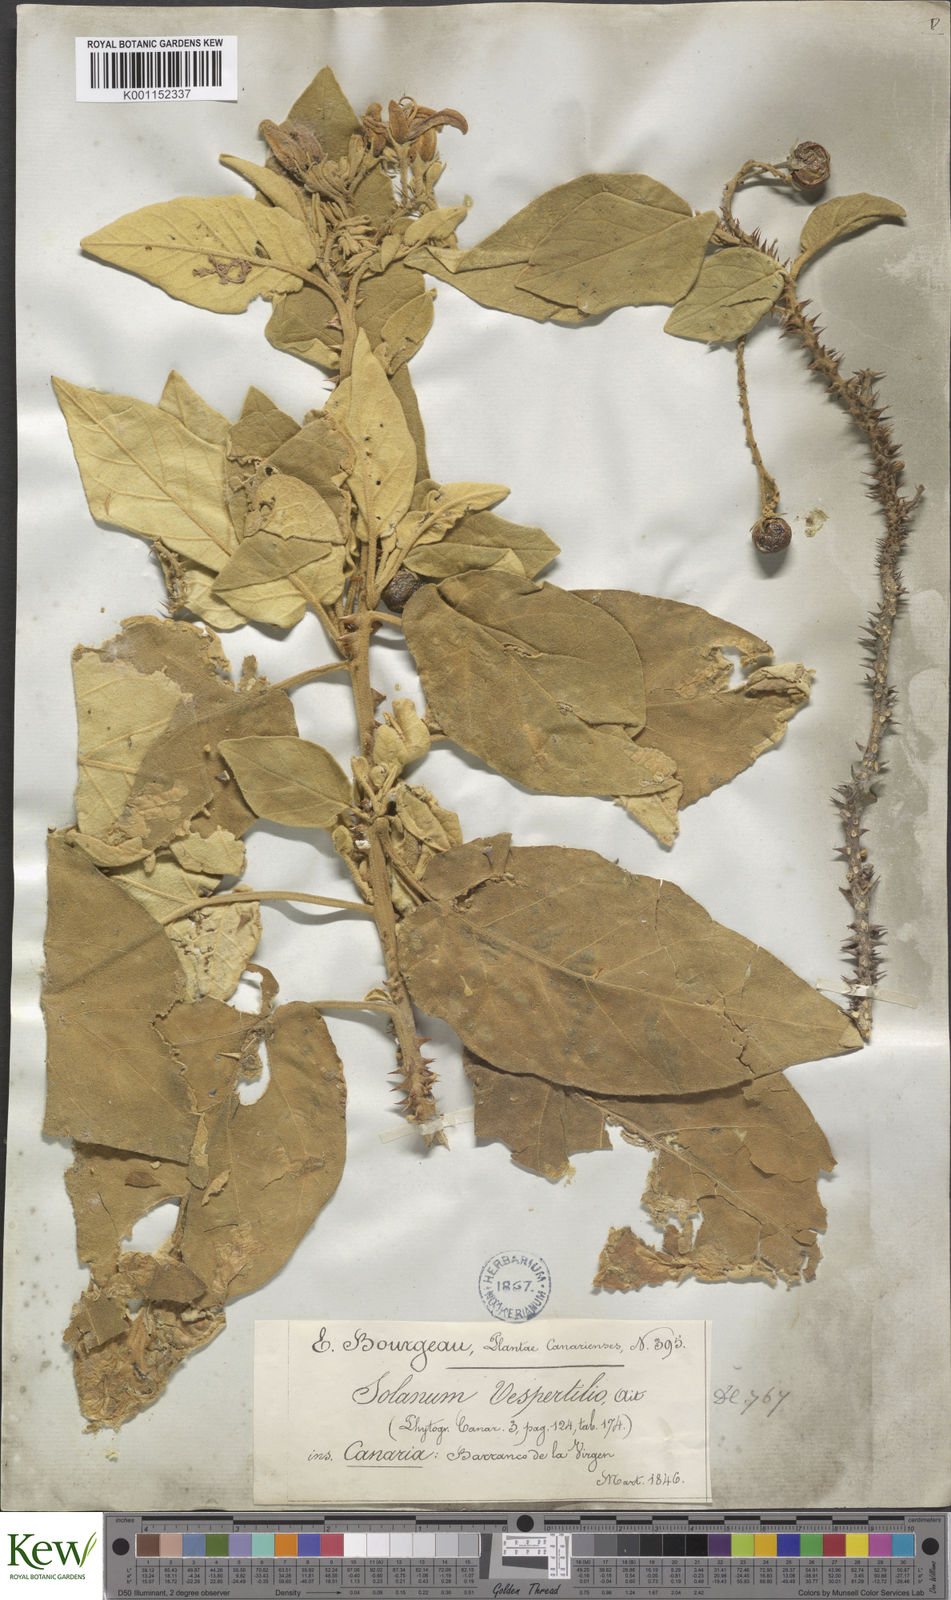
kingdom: Plantae
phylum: Tracheophyta
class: Magnoliopsida
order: Solanales
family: Solanaceae
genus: Solanum
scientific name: Solanum vespertilio
